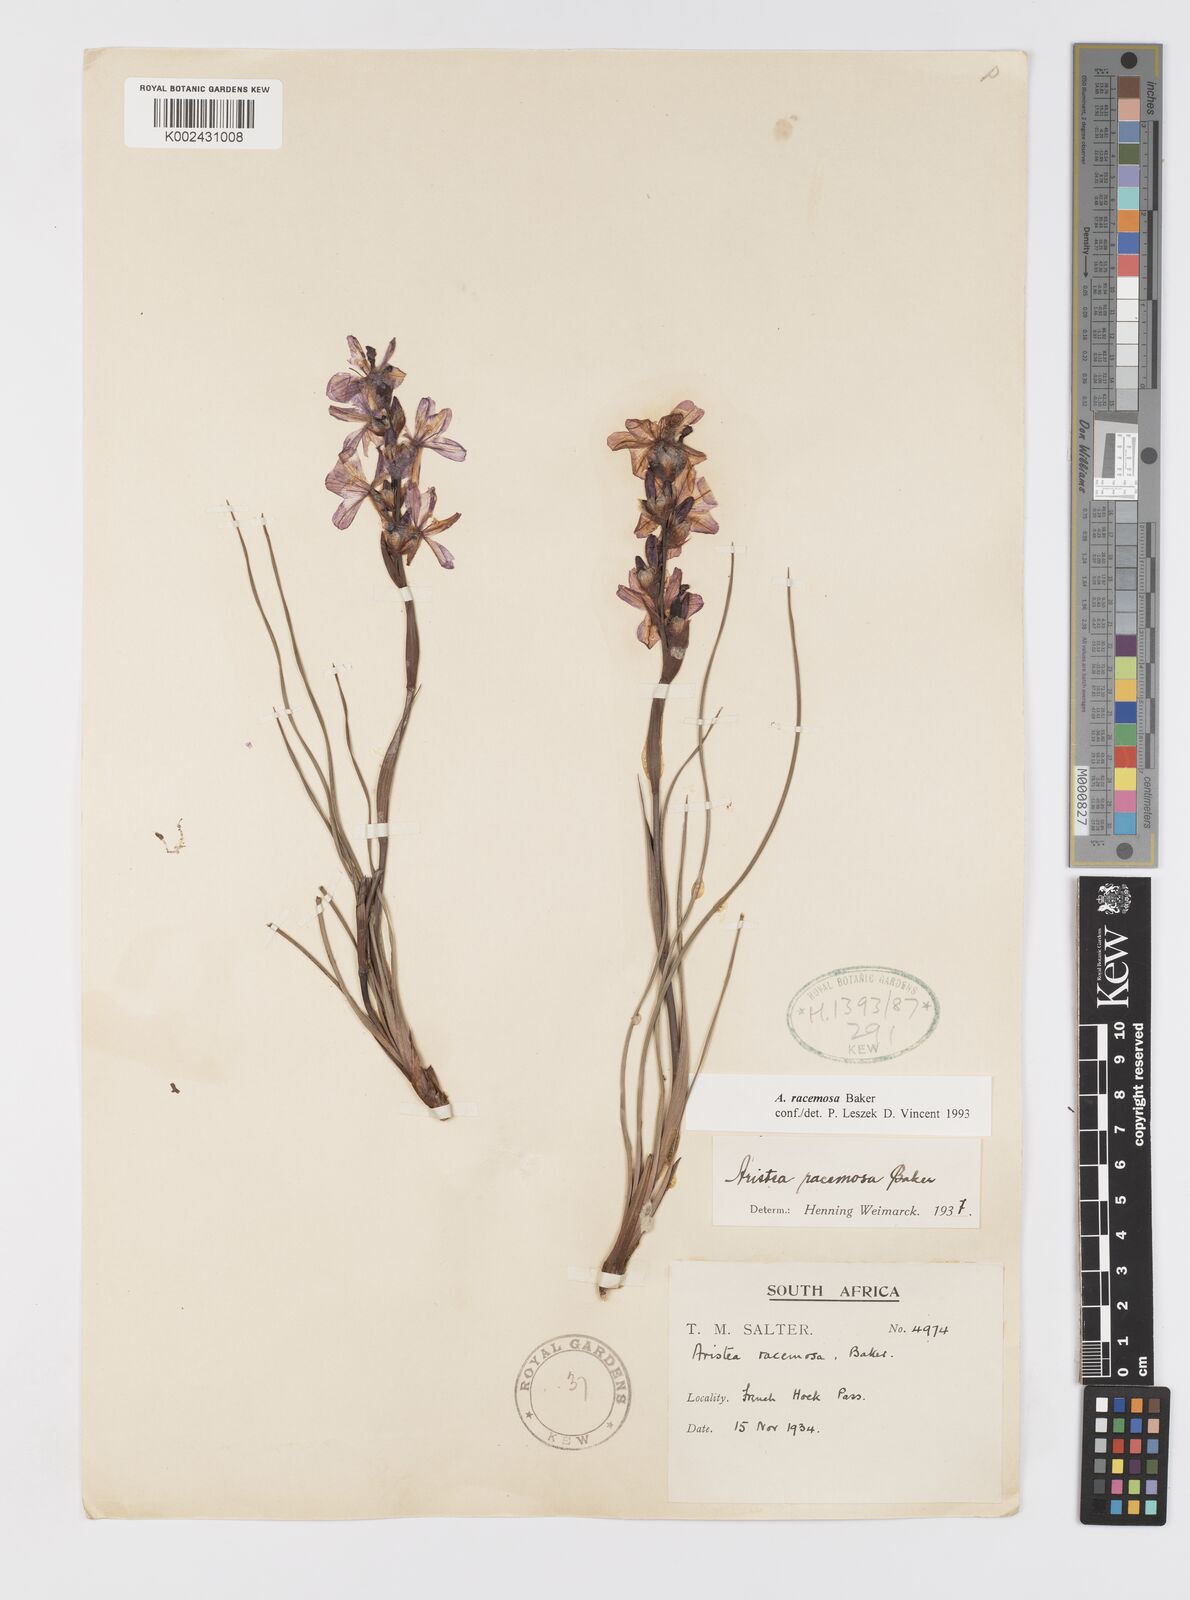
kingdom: Plantae
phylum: Tracheophyta
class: Liliopsida
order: Asparagales
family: Iridaceae
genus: Aristea
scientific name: Aristea racemosa
